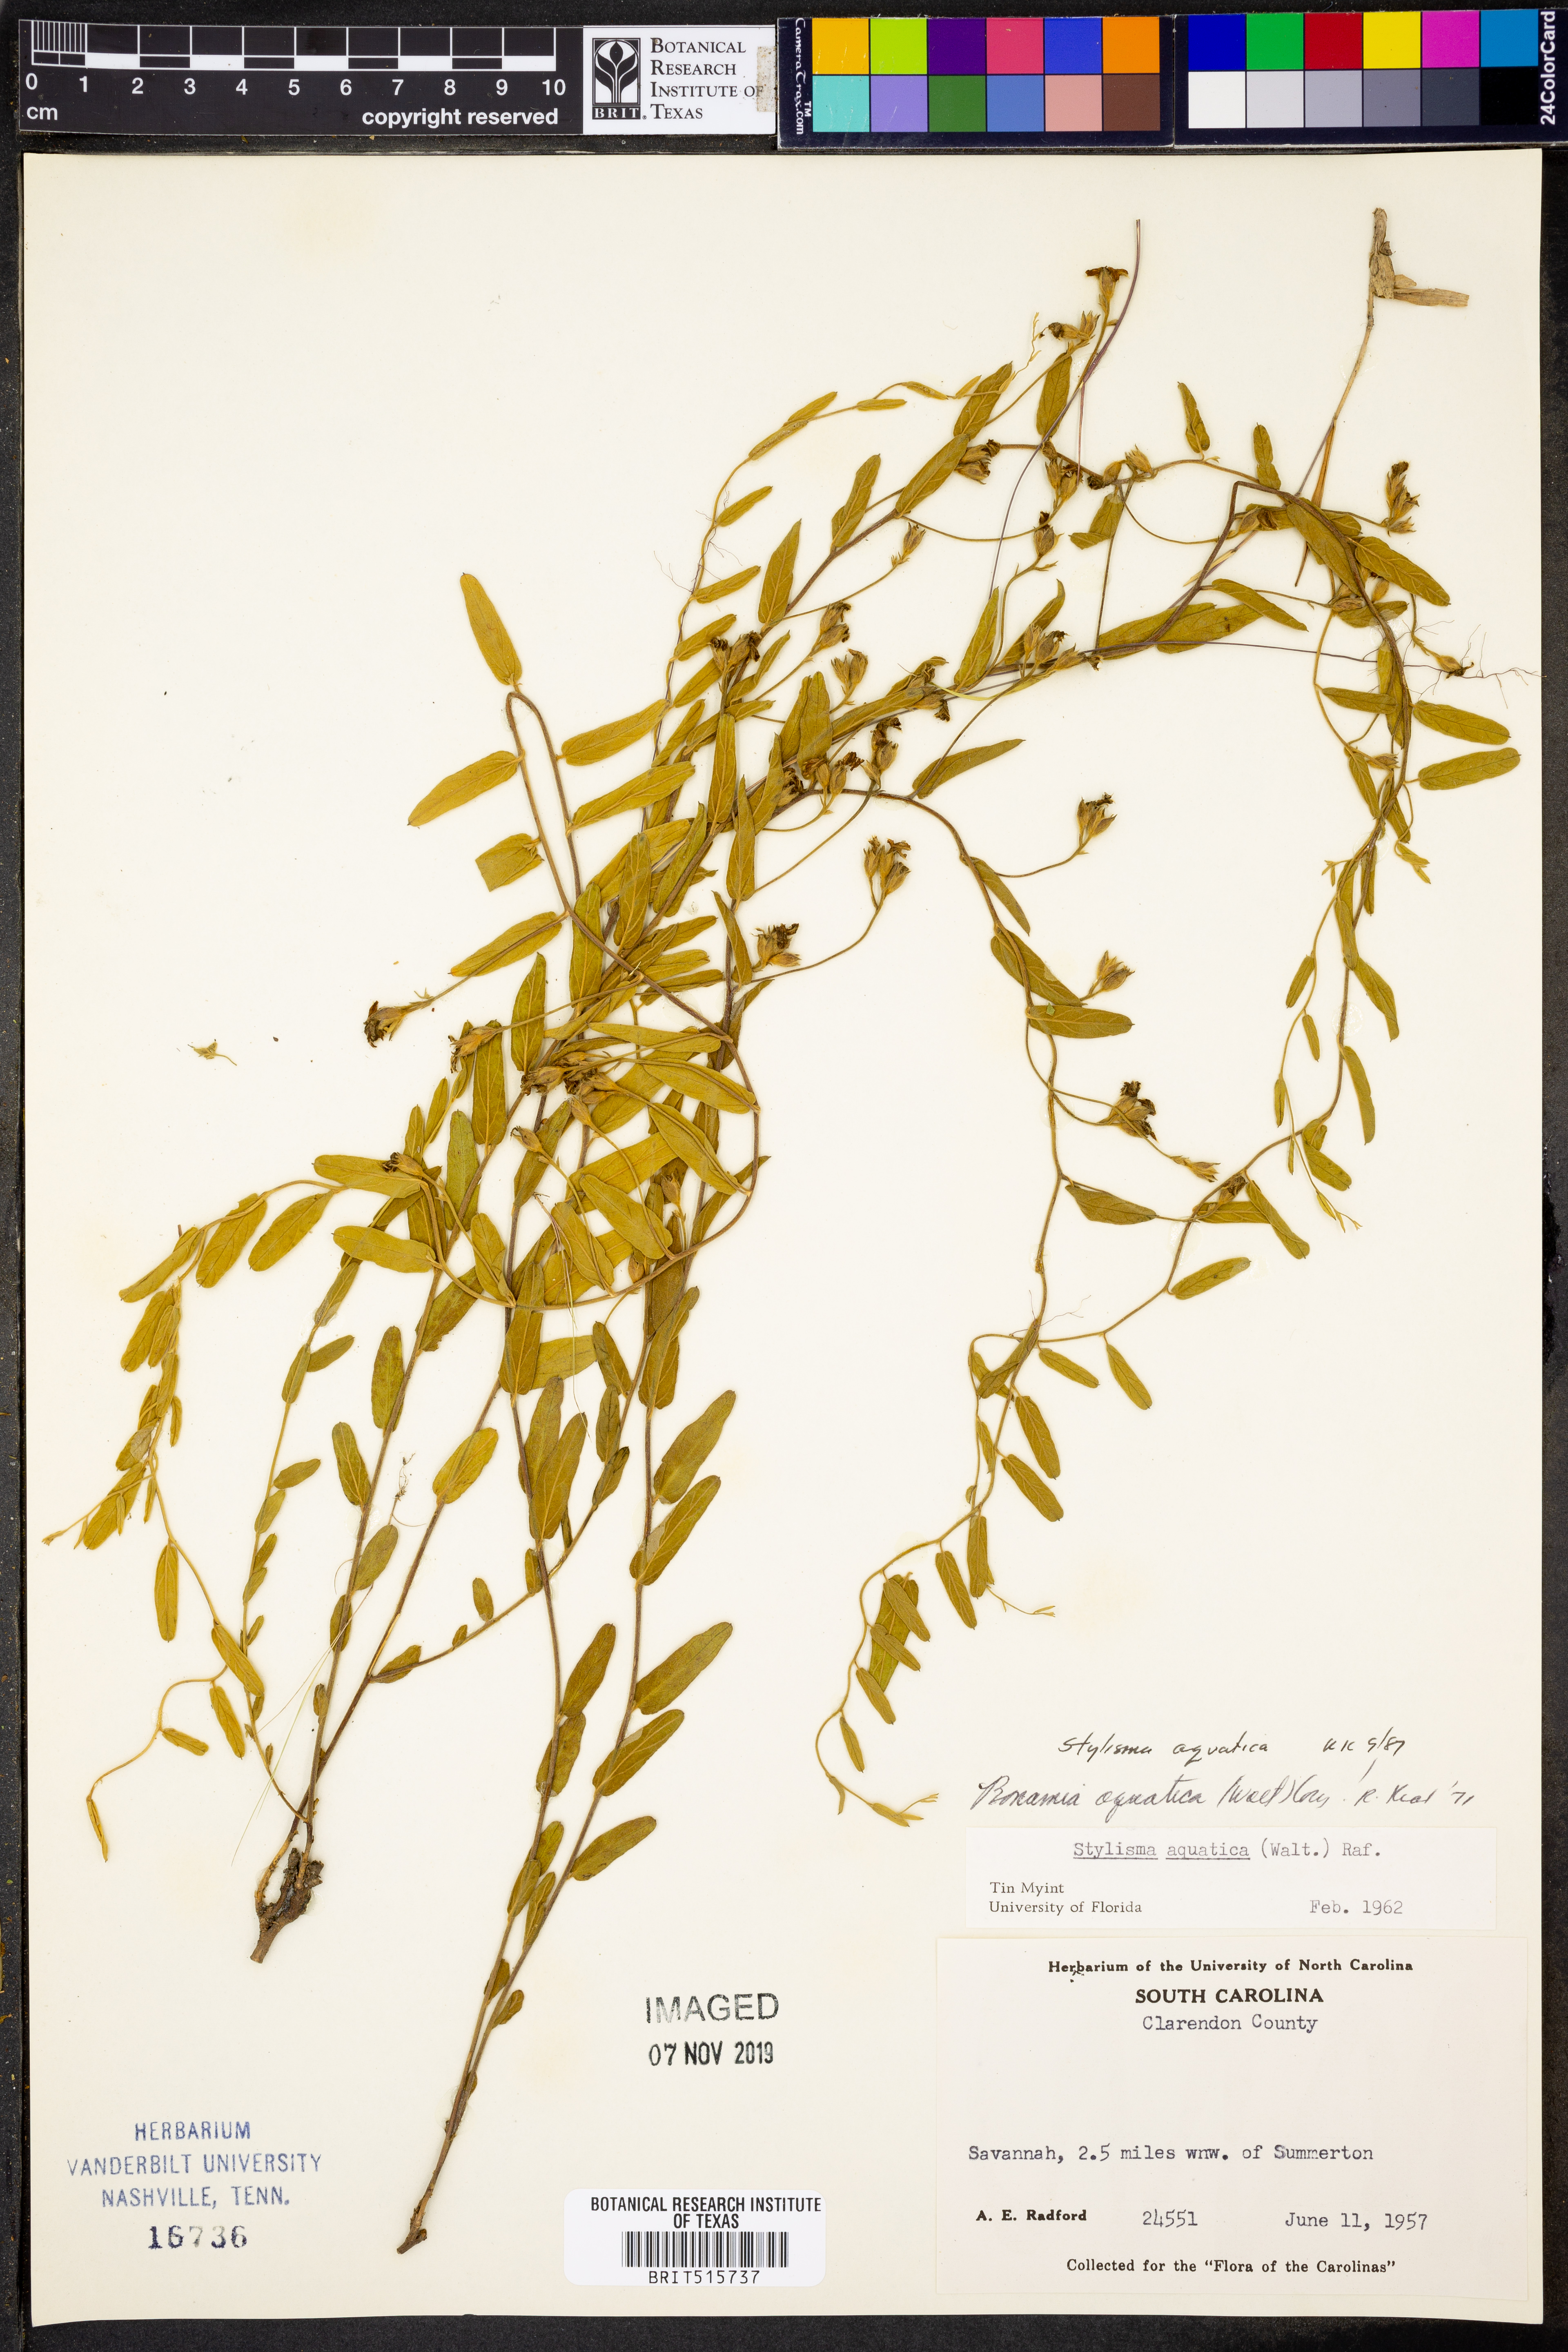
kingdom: Plantae
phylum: Tracheophyta
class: Magnoliopsida
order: Solanales
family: Convolvulaceae
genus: Stylisma
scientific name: Stylisma aquatica
